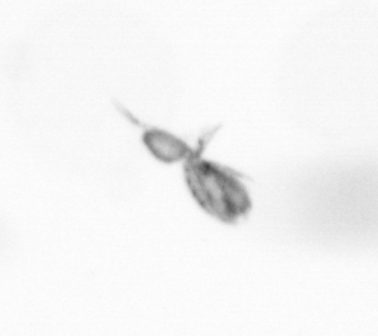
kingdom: Animalia
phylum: Arthropoda
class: Copepoda
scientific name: Copepoda
